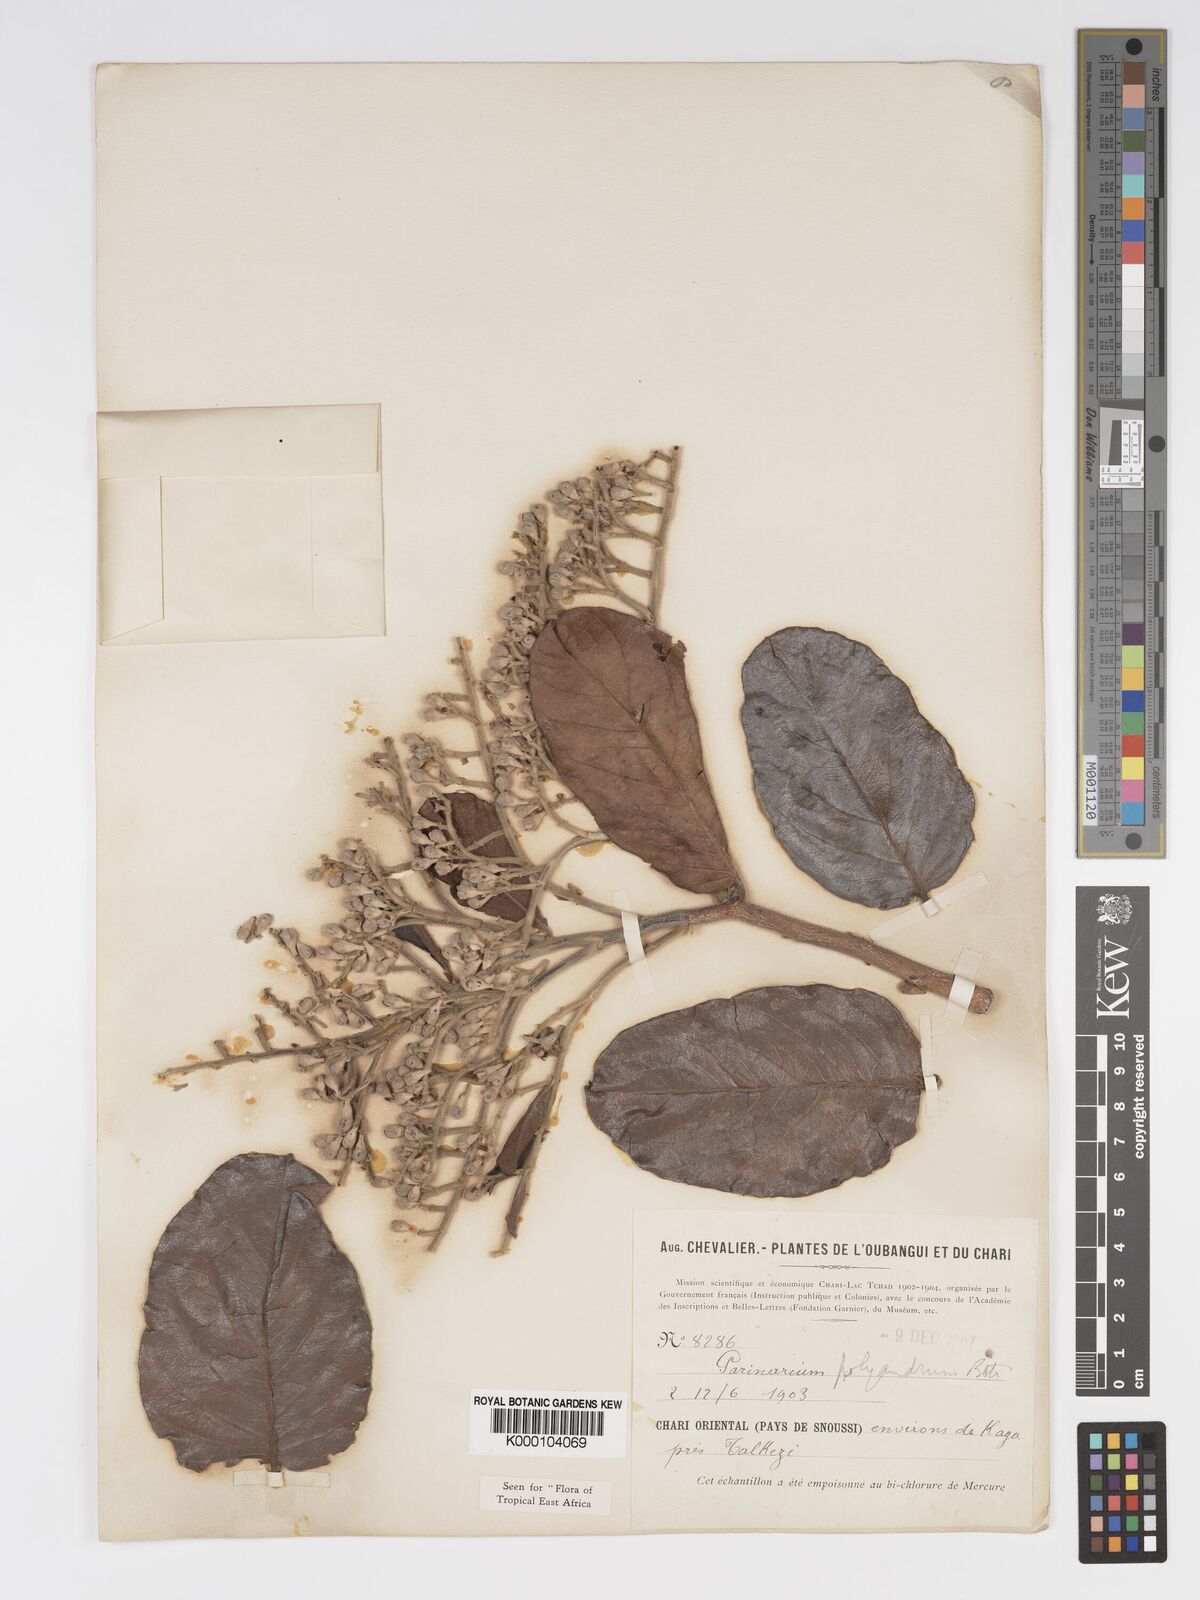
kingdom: Plantae
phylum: Tracheophyta
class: Magnoliopsida
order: Malpighiales
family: Chrysobalanaceae
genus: Maranthes
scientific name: Maranthes polyandra
